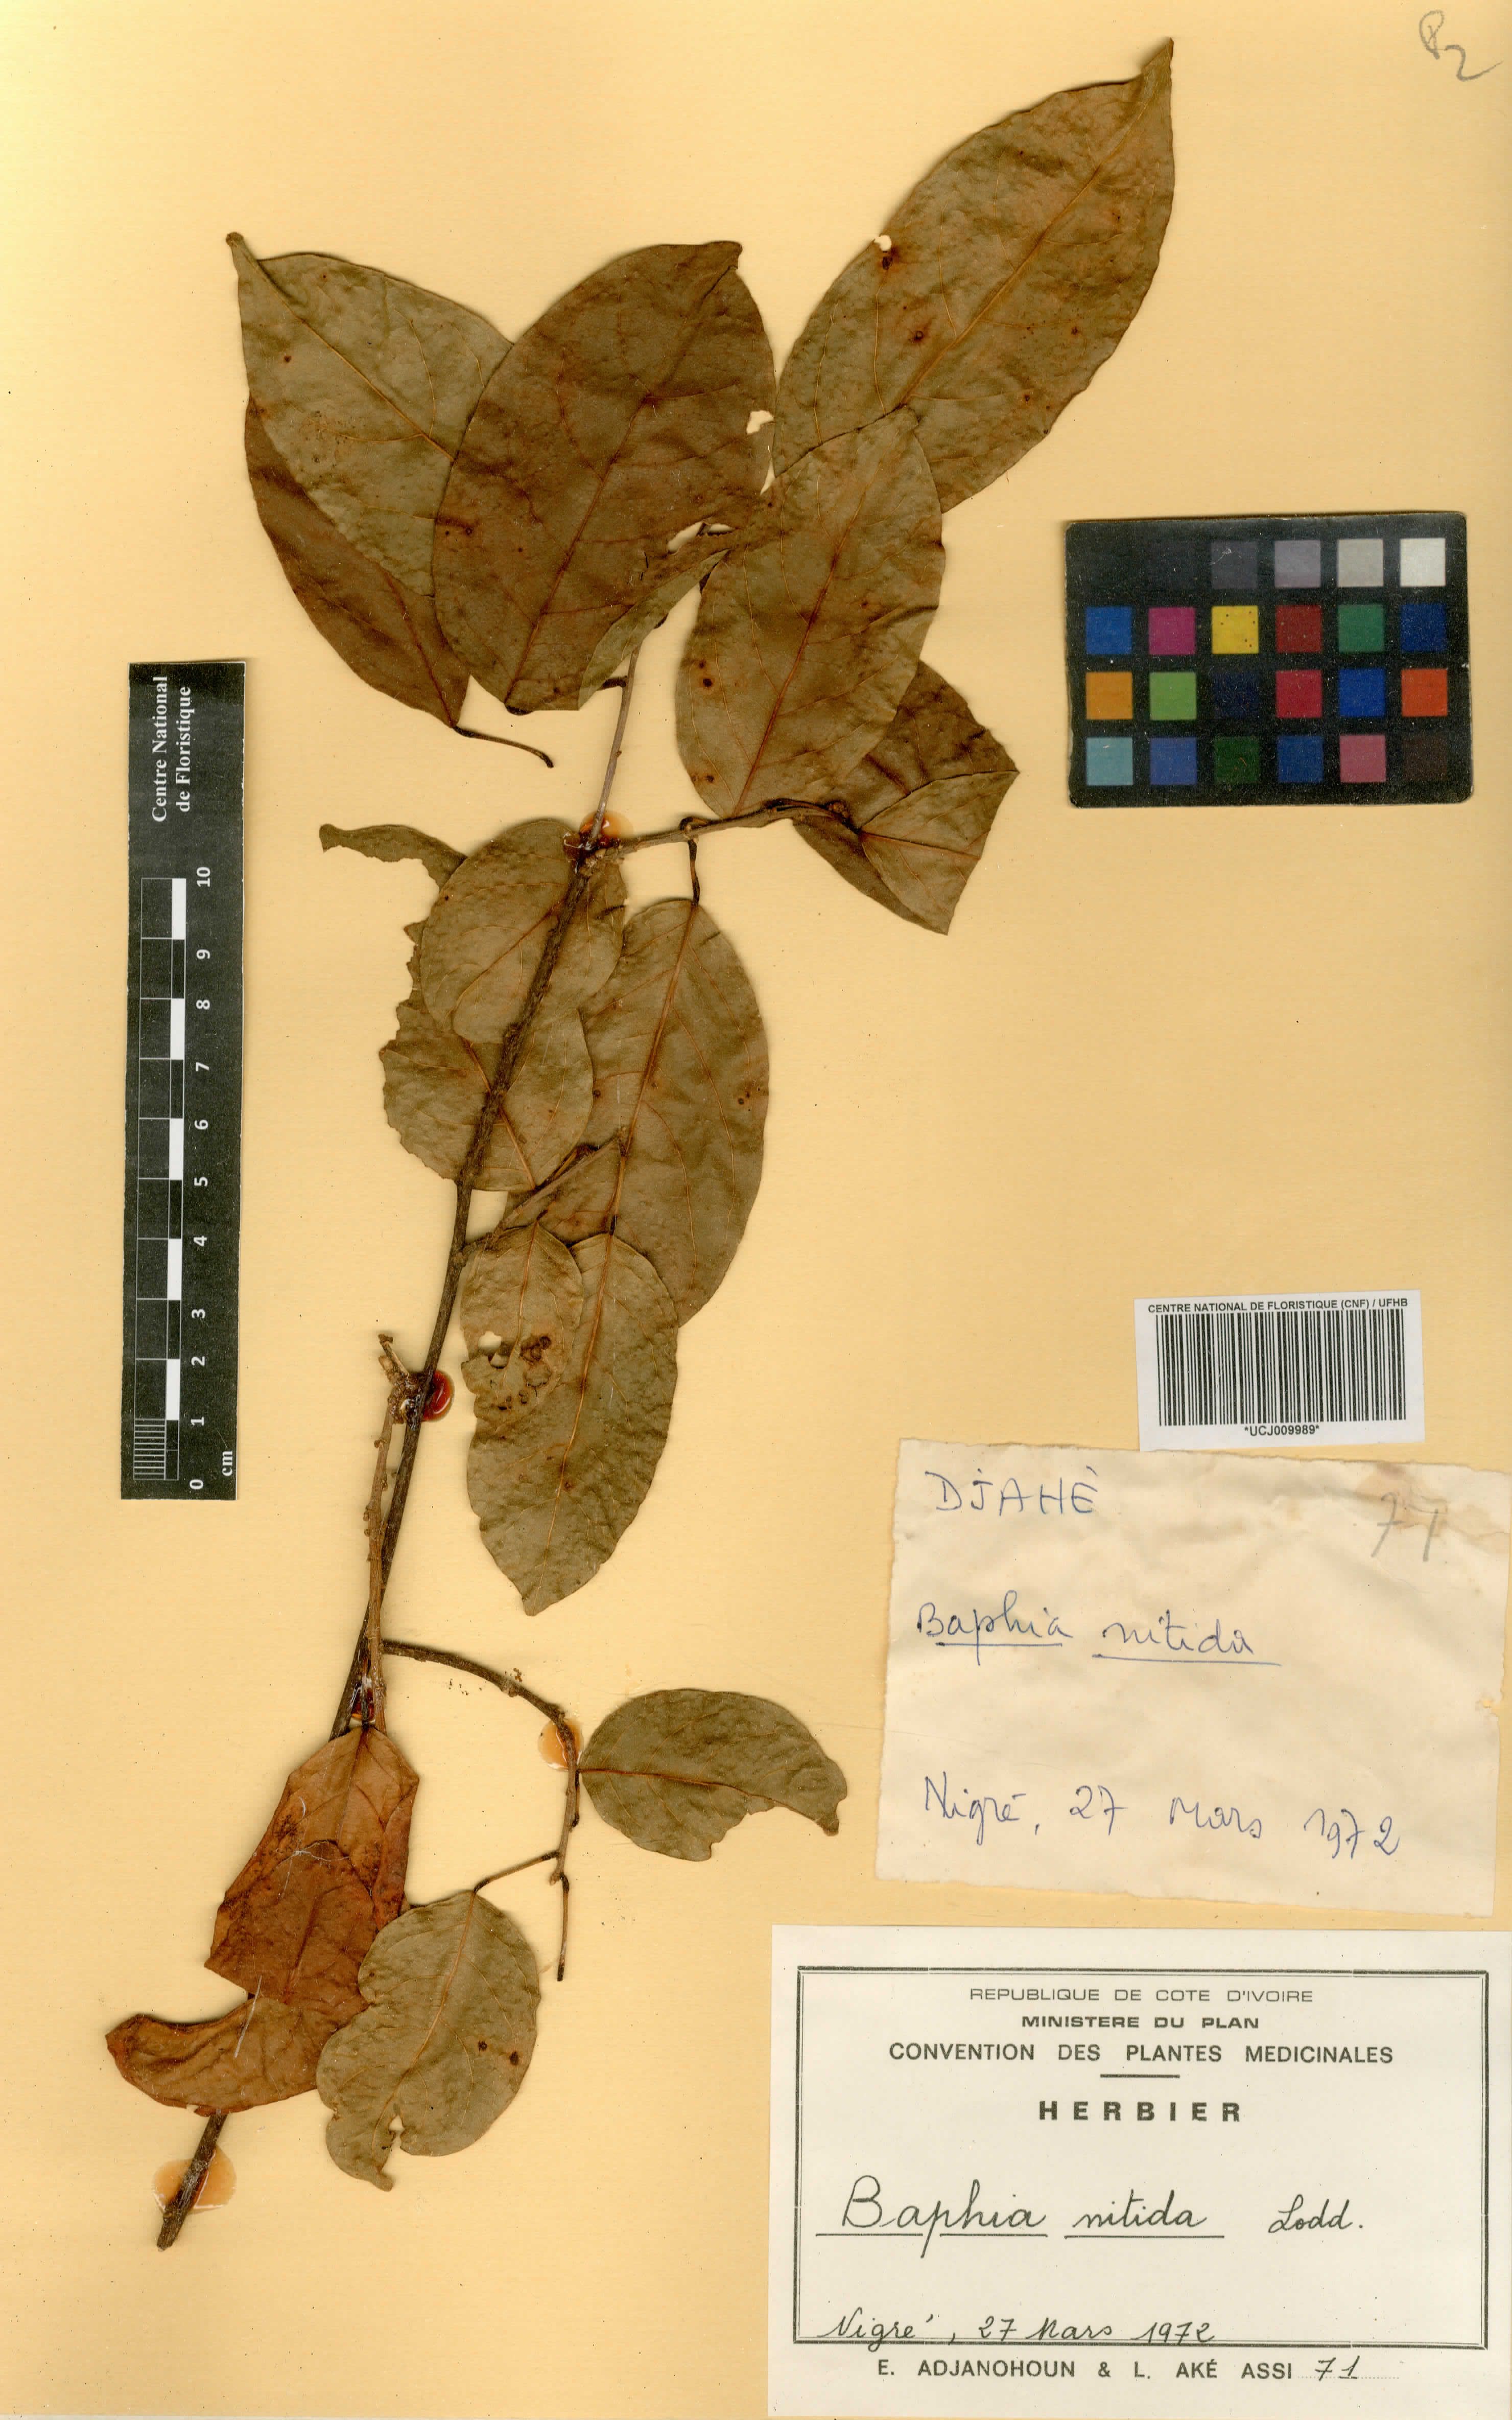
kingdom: Plantae
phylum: Tracheophyta
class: Magnoliopsida
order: Fabales
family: Fabaceae
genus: Baphia
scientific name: Baphia nitida
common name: Camwood
